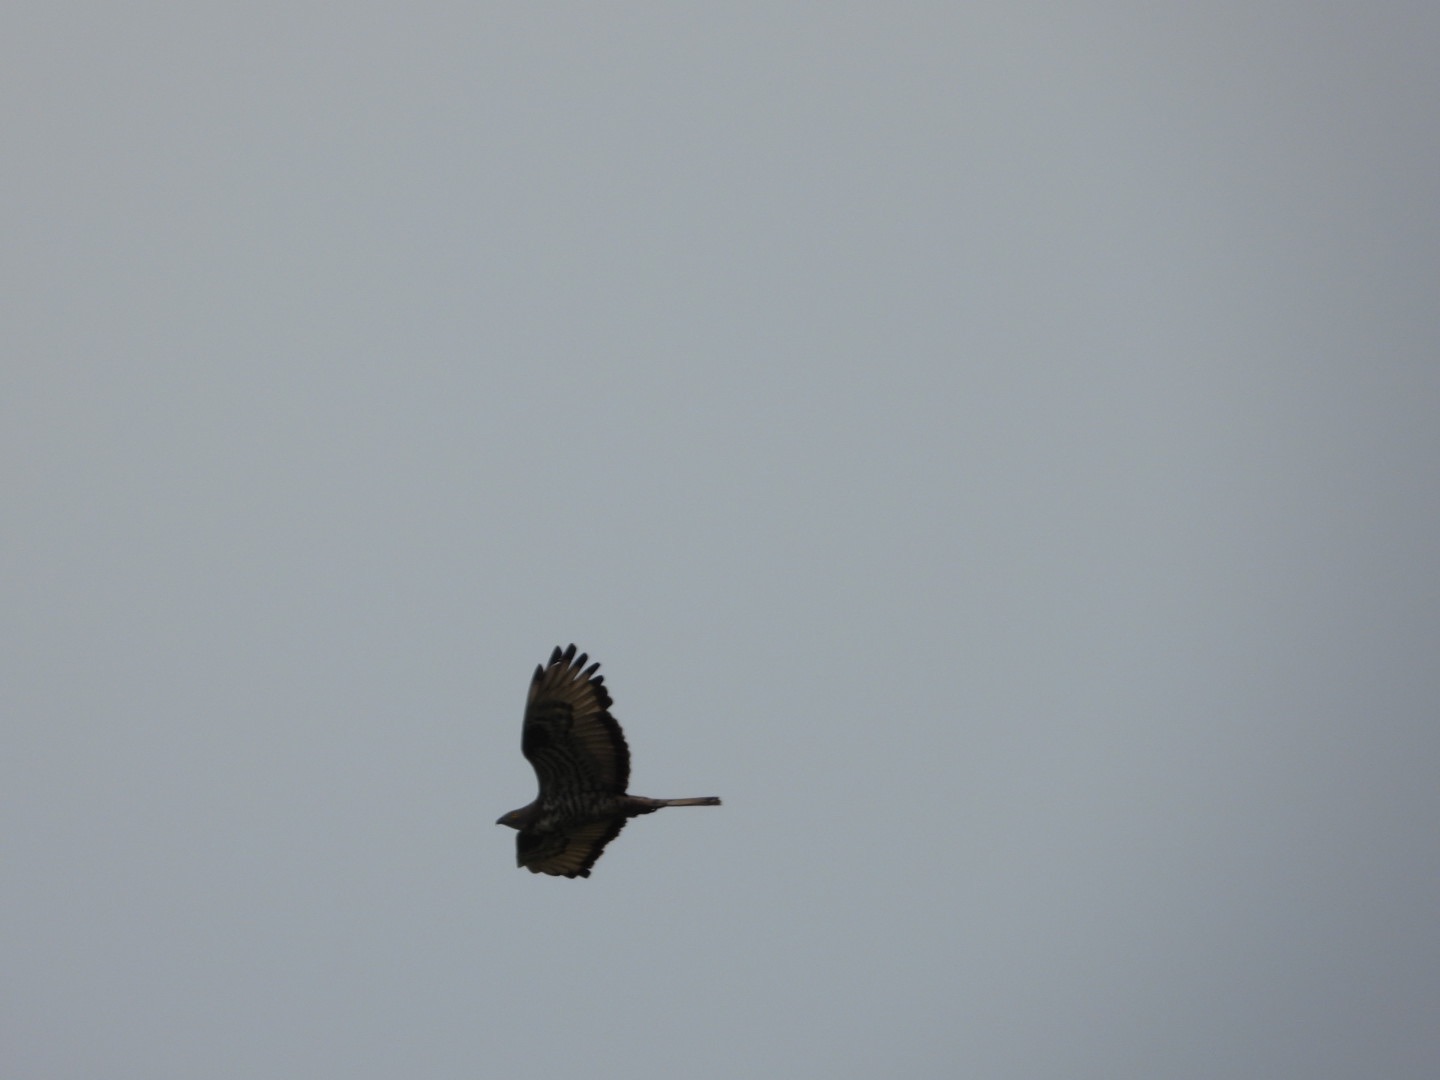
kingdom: Animalia
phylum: Chordata
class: Aves
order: Accipitriformes
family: Accipitridae
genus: Pernis
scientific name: Pernis apivorus
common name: Hvepsevåge
